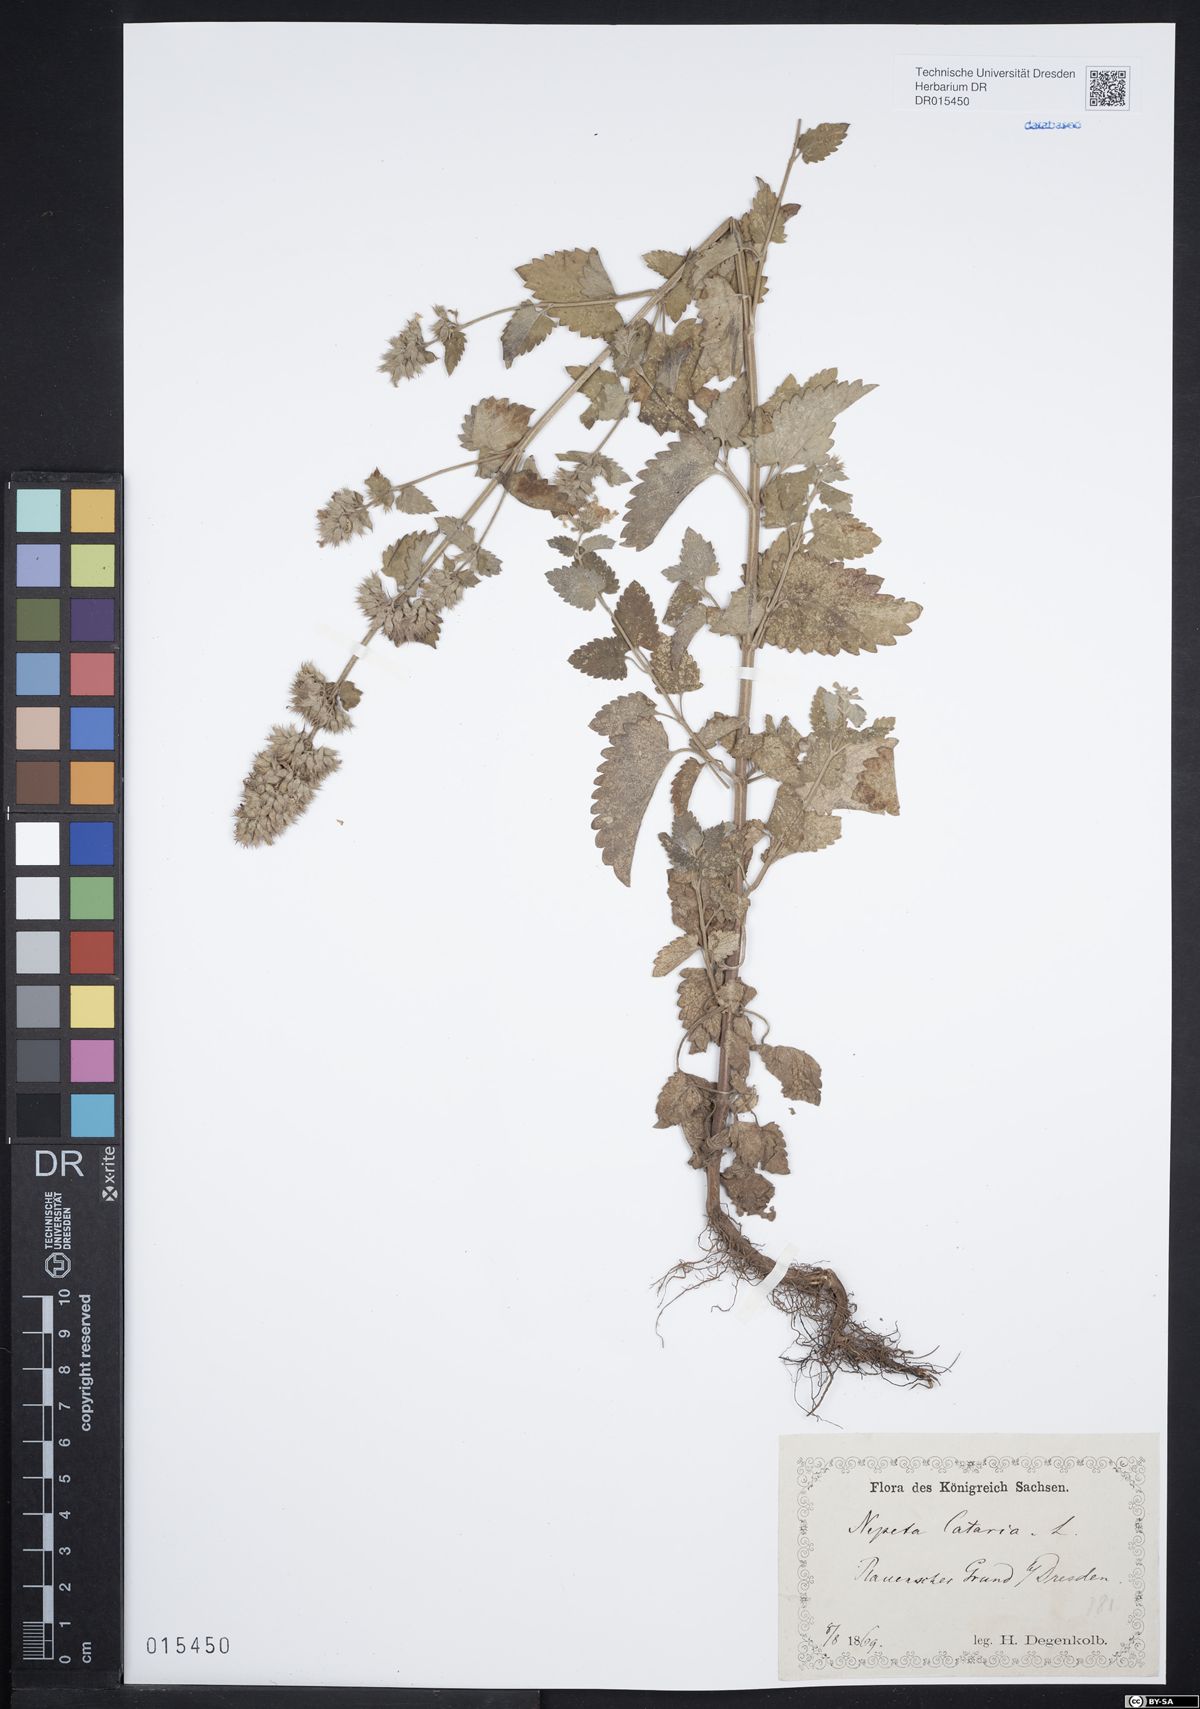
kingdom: Plantae
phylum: Tracheophyta
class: Magnoliopsida
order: Lamiales
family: Lamiaceae
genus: Nepeta
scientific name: Nepeta cataria
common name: Catnip
